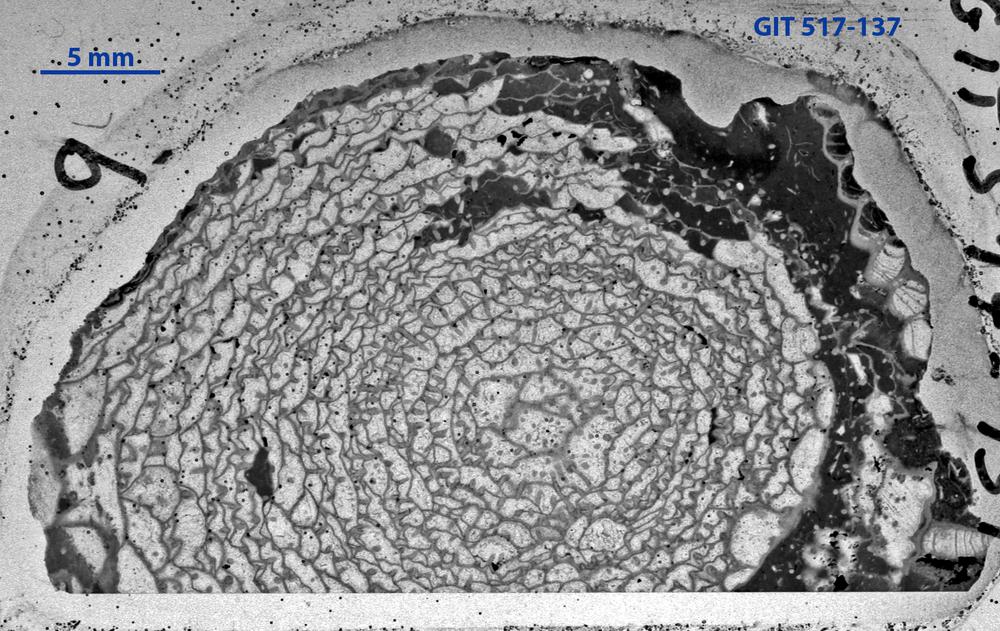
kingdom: Animalia
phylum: Cnidaria
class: Anthozoa
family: Cyathophyllidae
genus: Cystiphyllum
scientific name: Cystiphyllum visbyense
